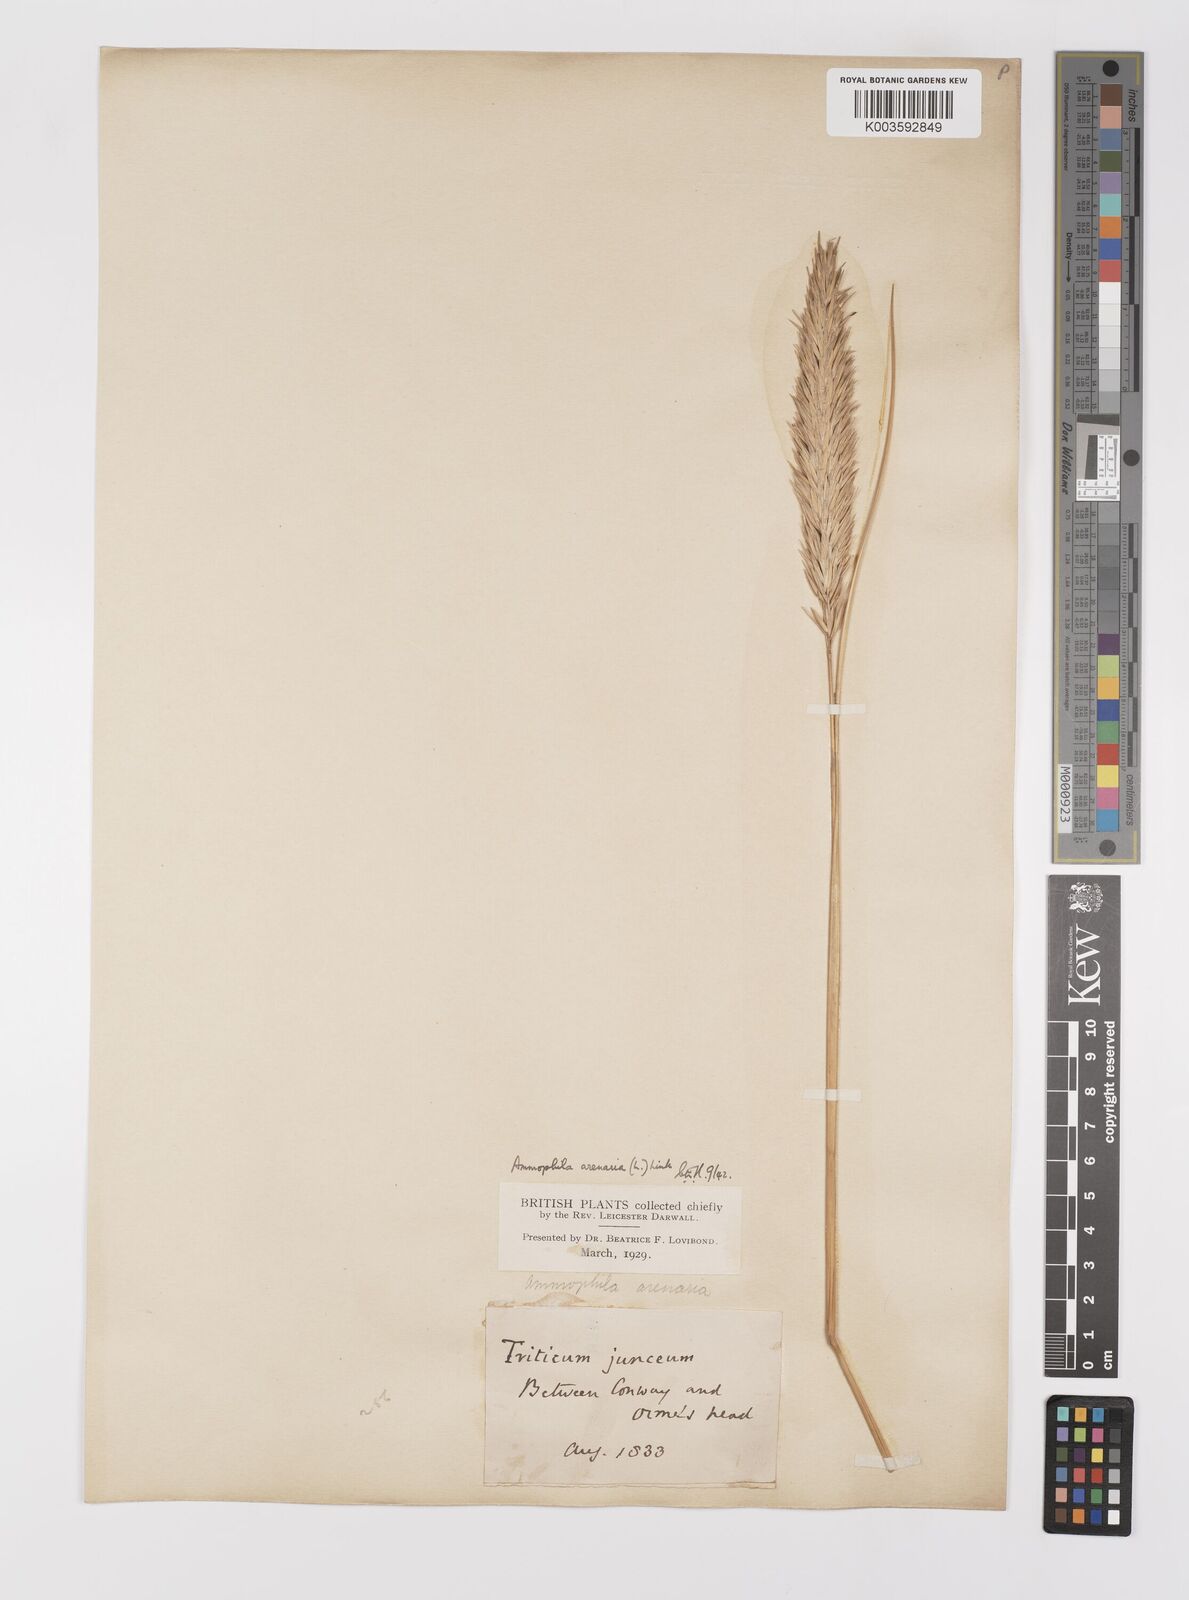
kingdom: Plantae
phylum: Tracheophyta
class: Liliopsida
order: Poales
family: Poaceae
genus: Calamagrostis
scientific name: Calamagrostis arenaria
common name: European beachgrass
